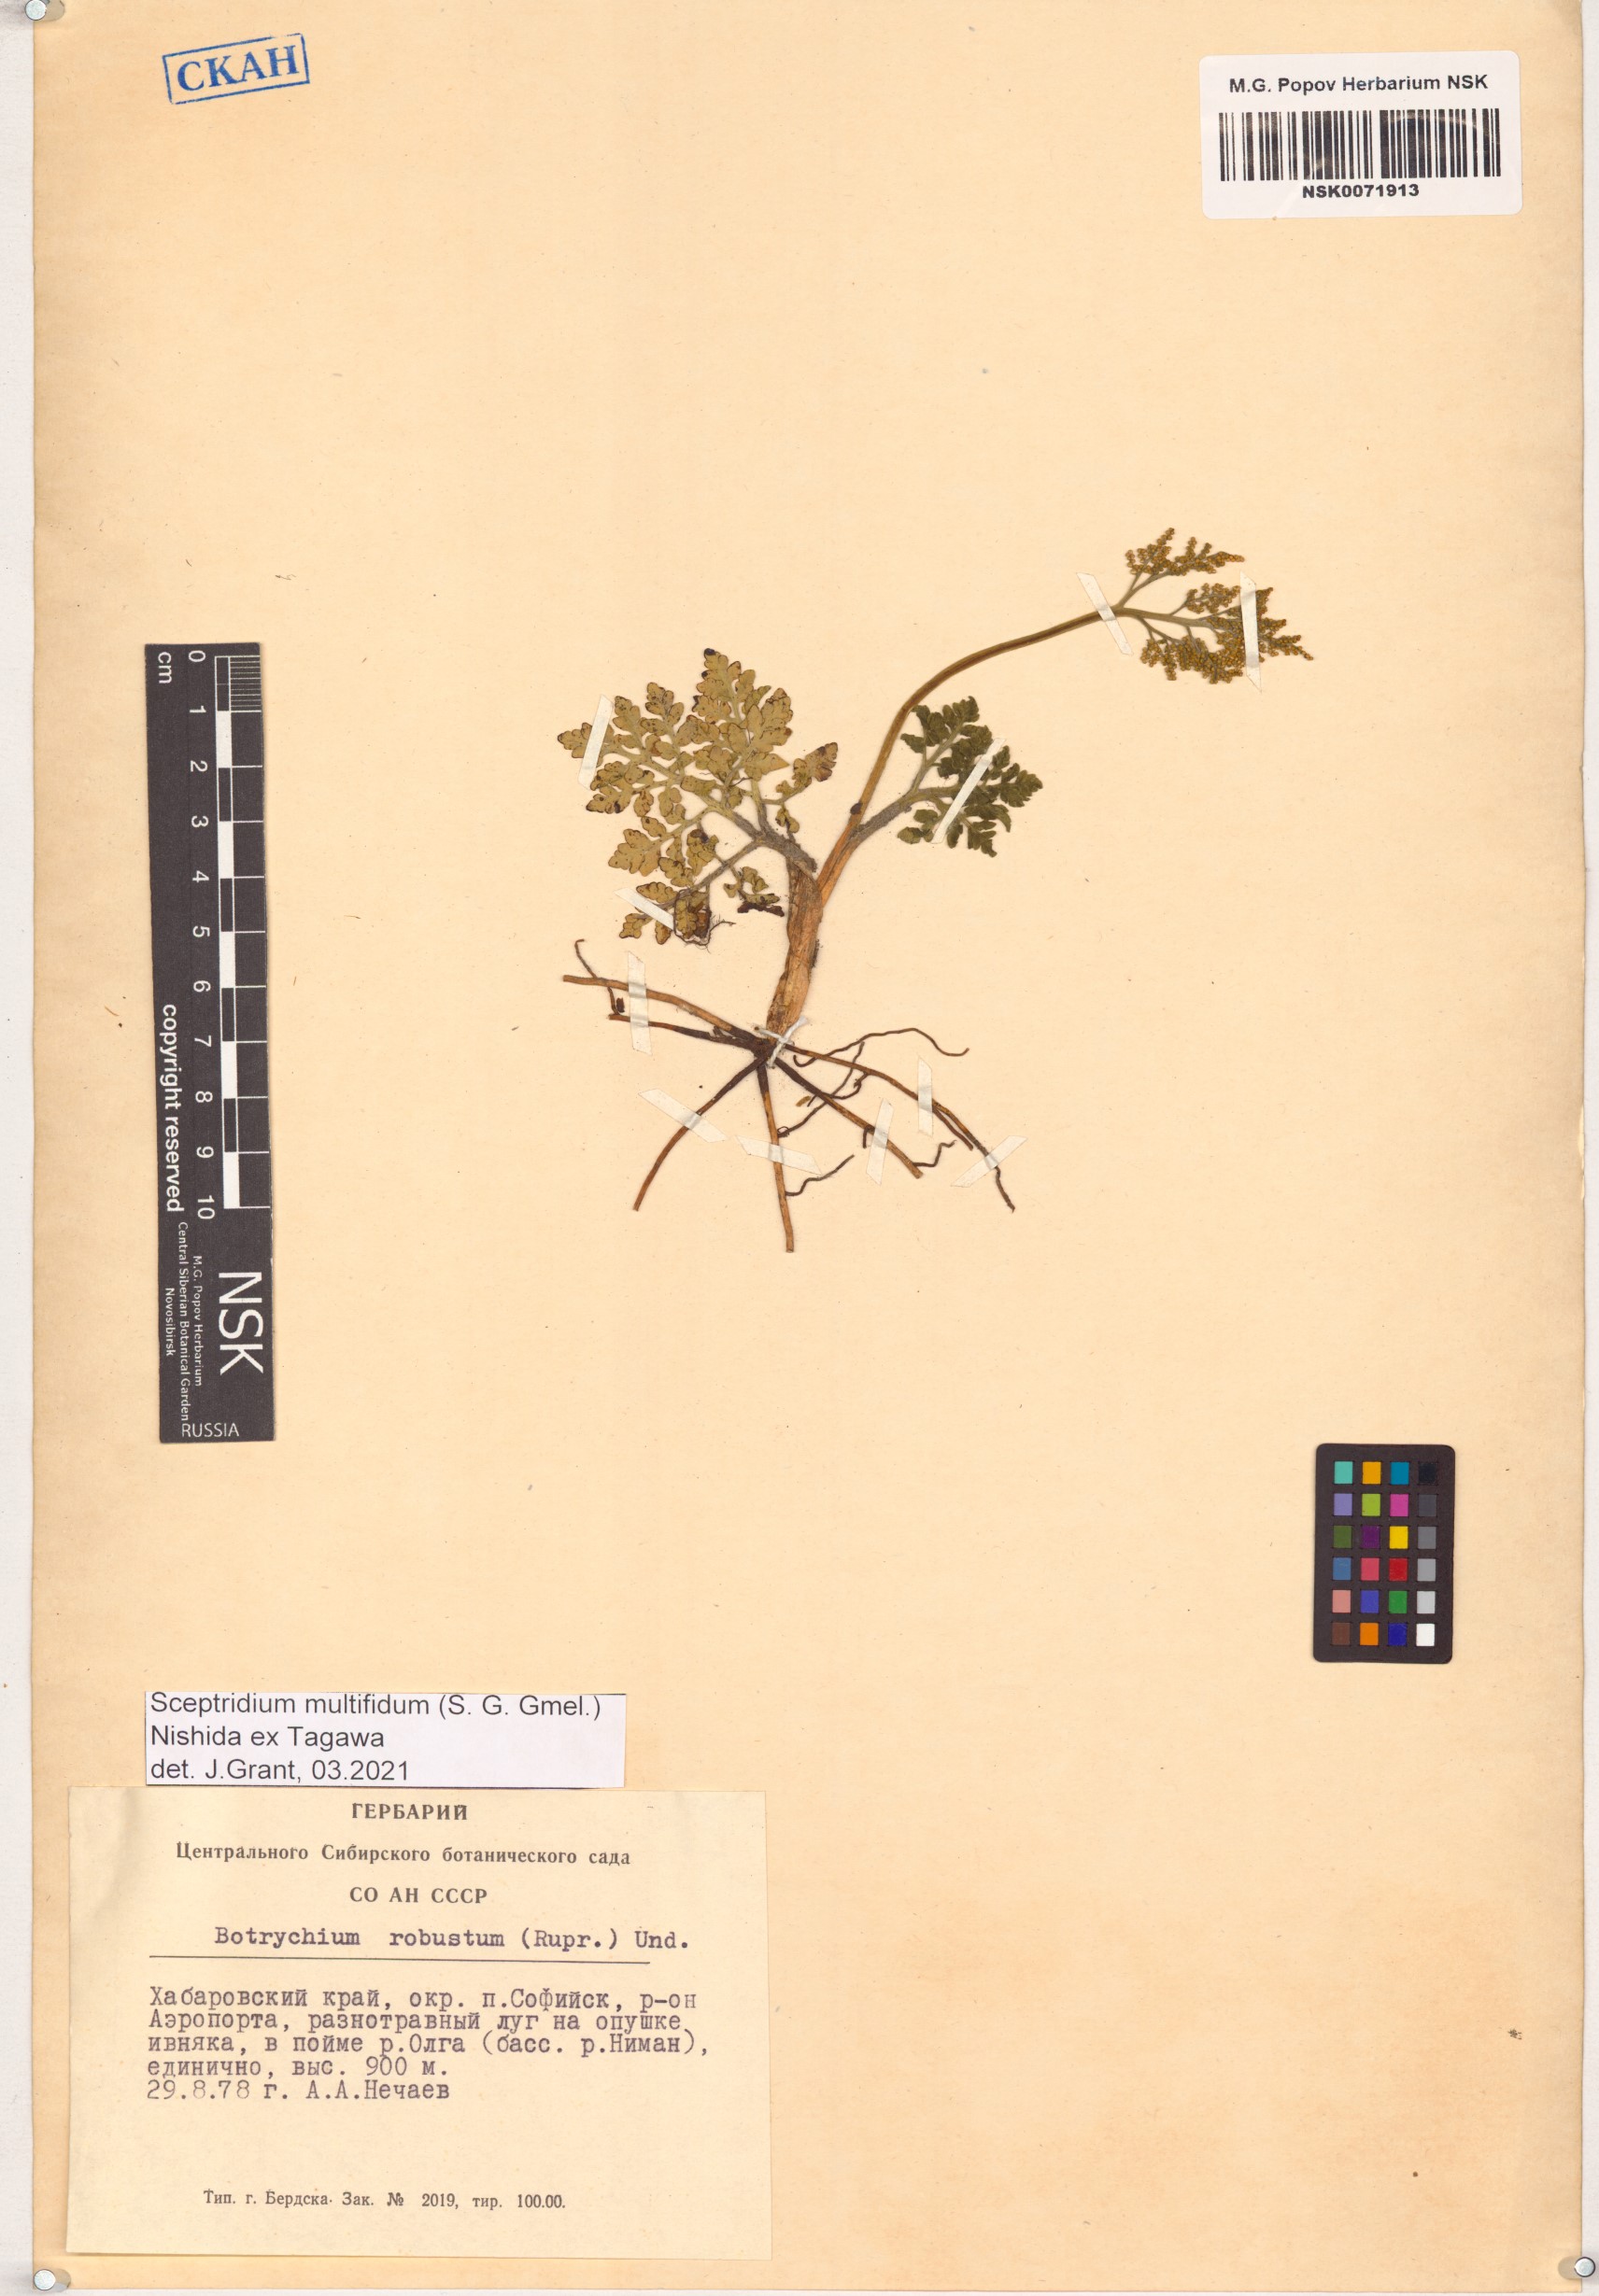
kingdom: Plantae
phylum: Tracheophyta
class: Polypodiopsida
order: Ophioglossales
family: Ophioglossaceae
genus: Sceptridium
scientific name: Sceptridium multifidum
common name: Leathery grape fern
